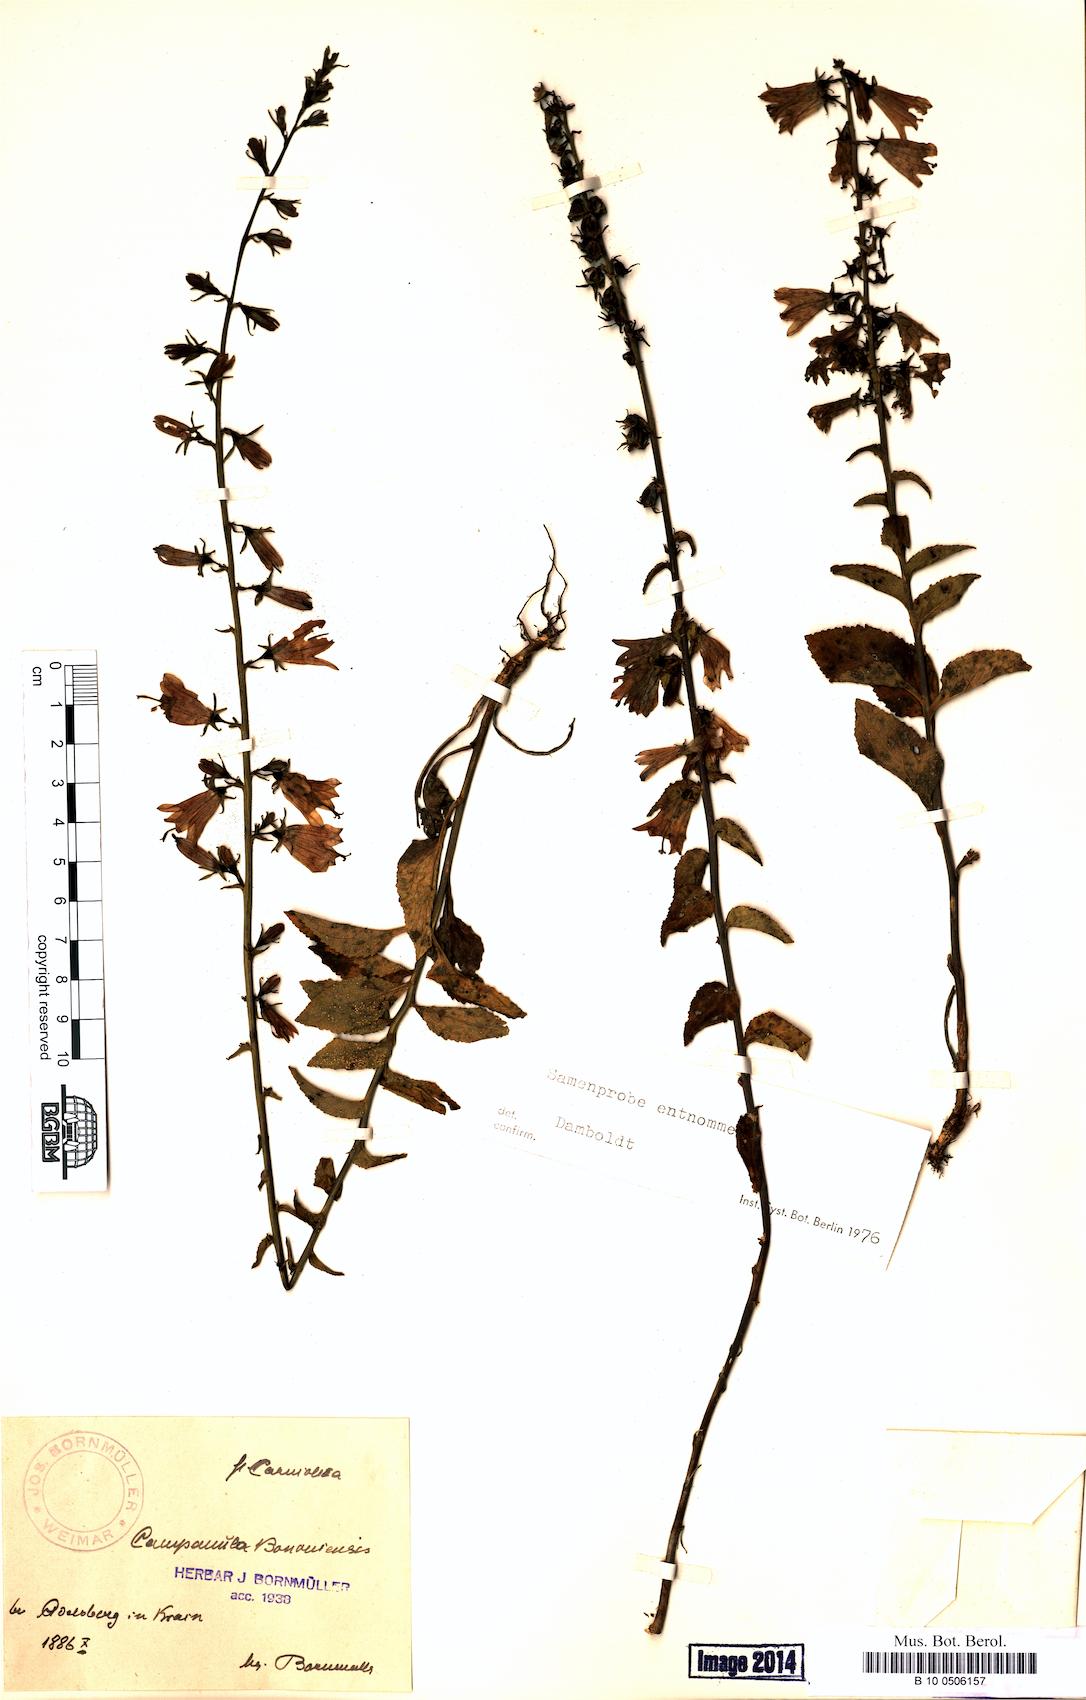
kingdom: Plantae
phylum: Tracheophyta
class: Magnoliopsida
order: Asterales
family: Campanulaceae
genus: Campanula
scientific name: Campanula bononiensis
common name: Pale bellflower
